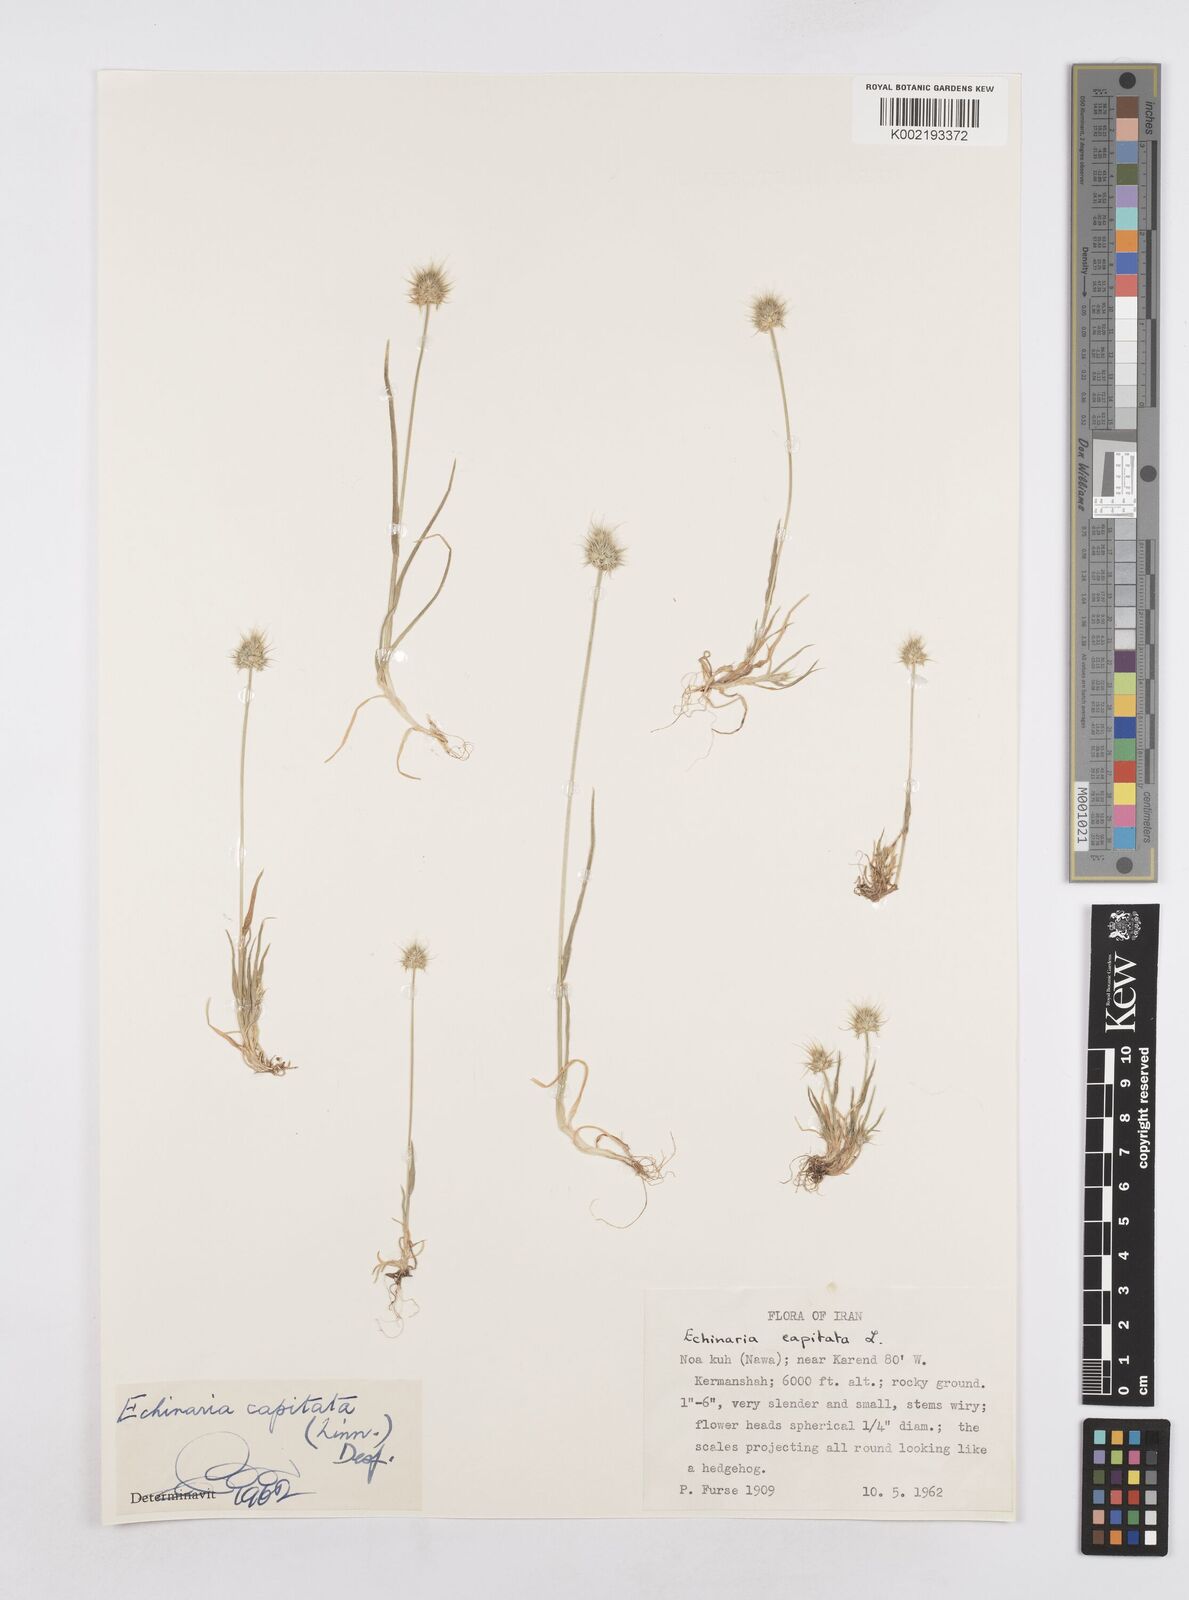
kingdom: Plantae
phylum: Tracheophyta
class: Liliopsida
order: Poales
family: Poaceae
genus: Echinaria
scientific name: Echinaria capitata
